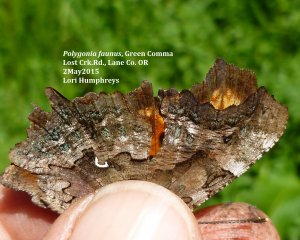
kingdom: Animalia
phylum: Arthropoda
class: Insecta
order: Lepidoptera
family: Nymphalidae
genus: Polygonia
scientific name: Polygonia faunus
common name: Green Comma
